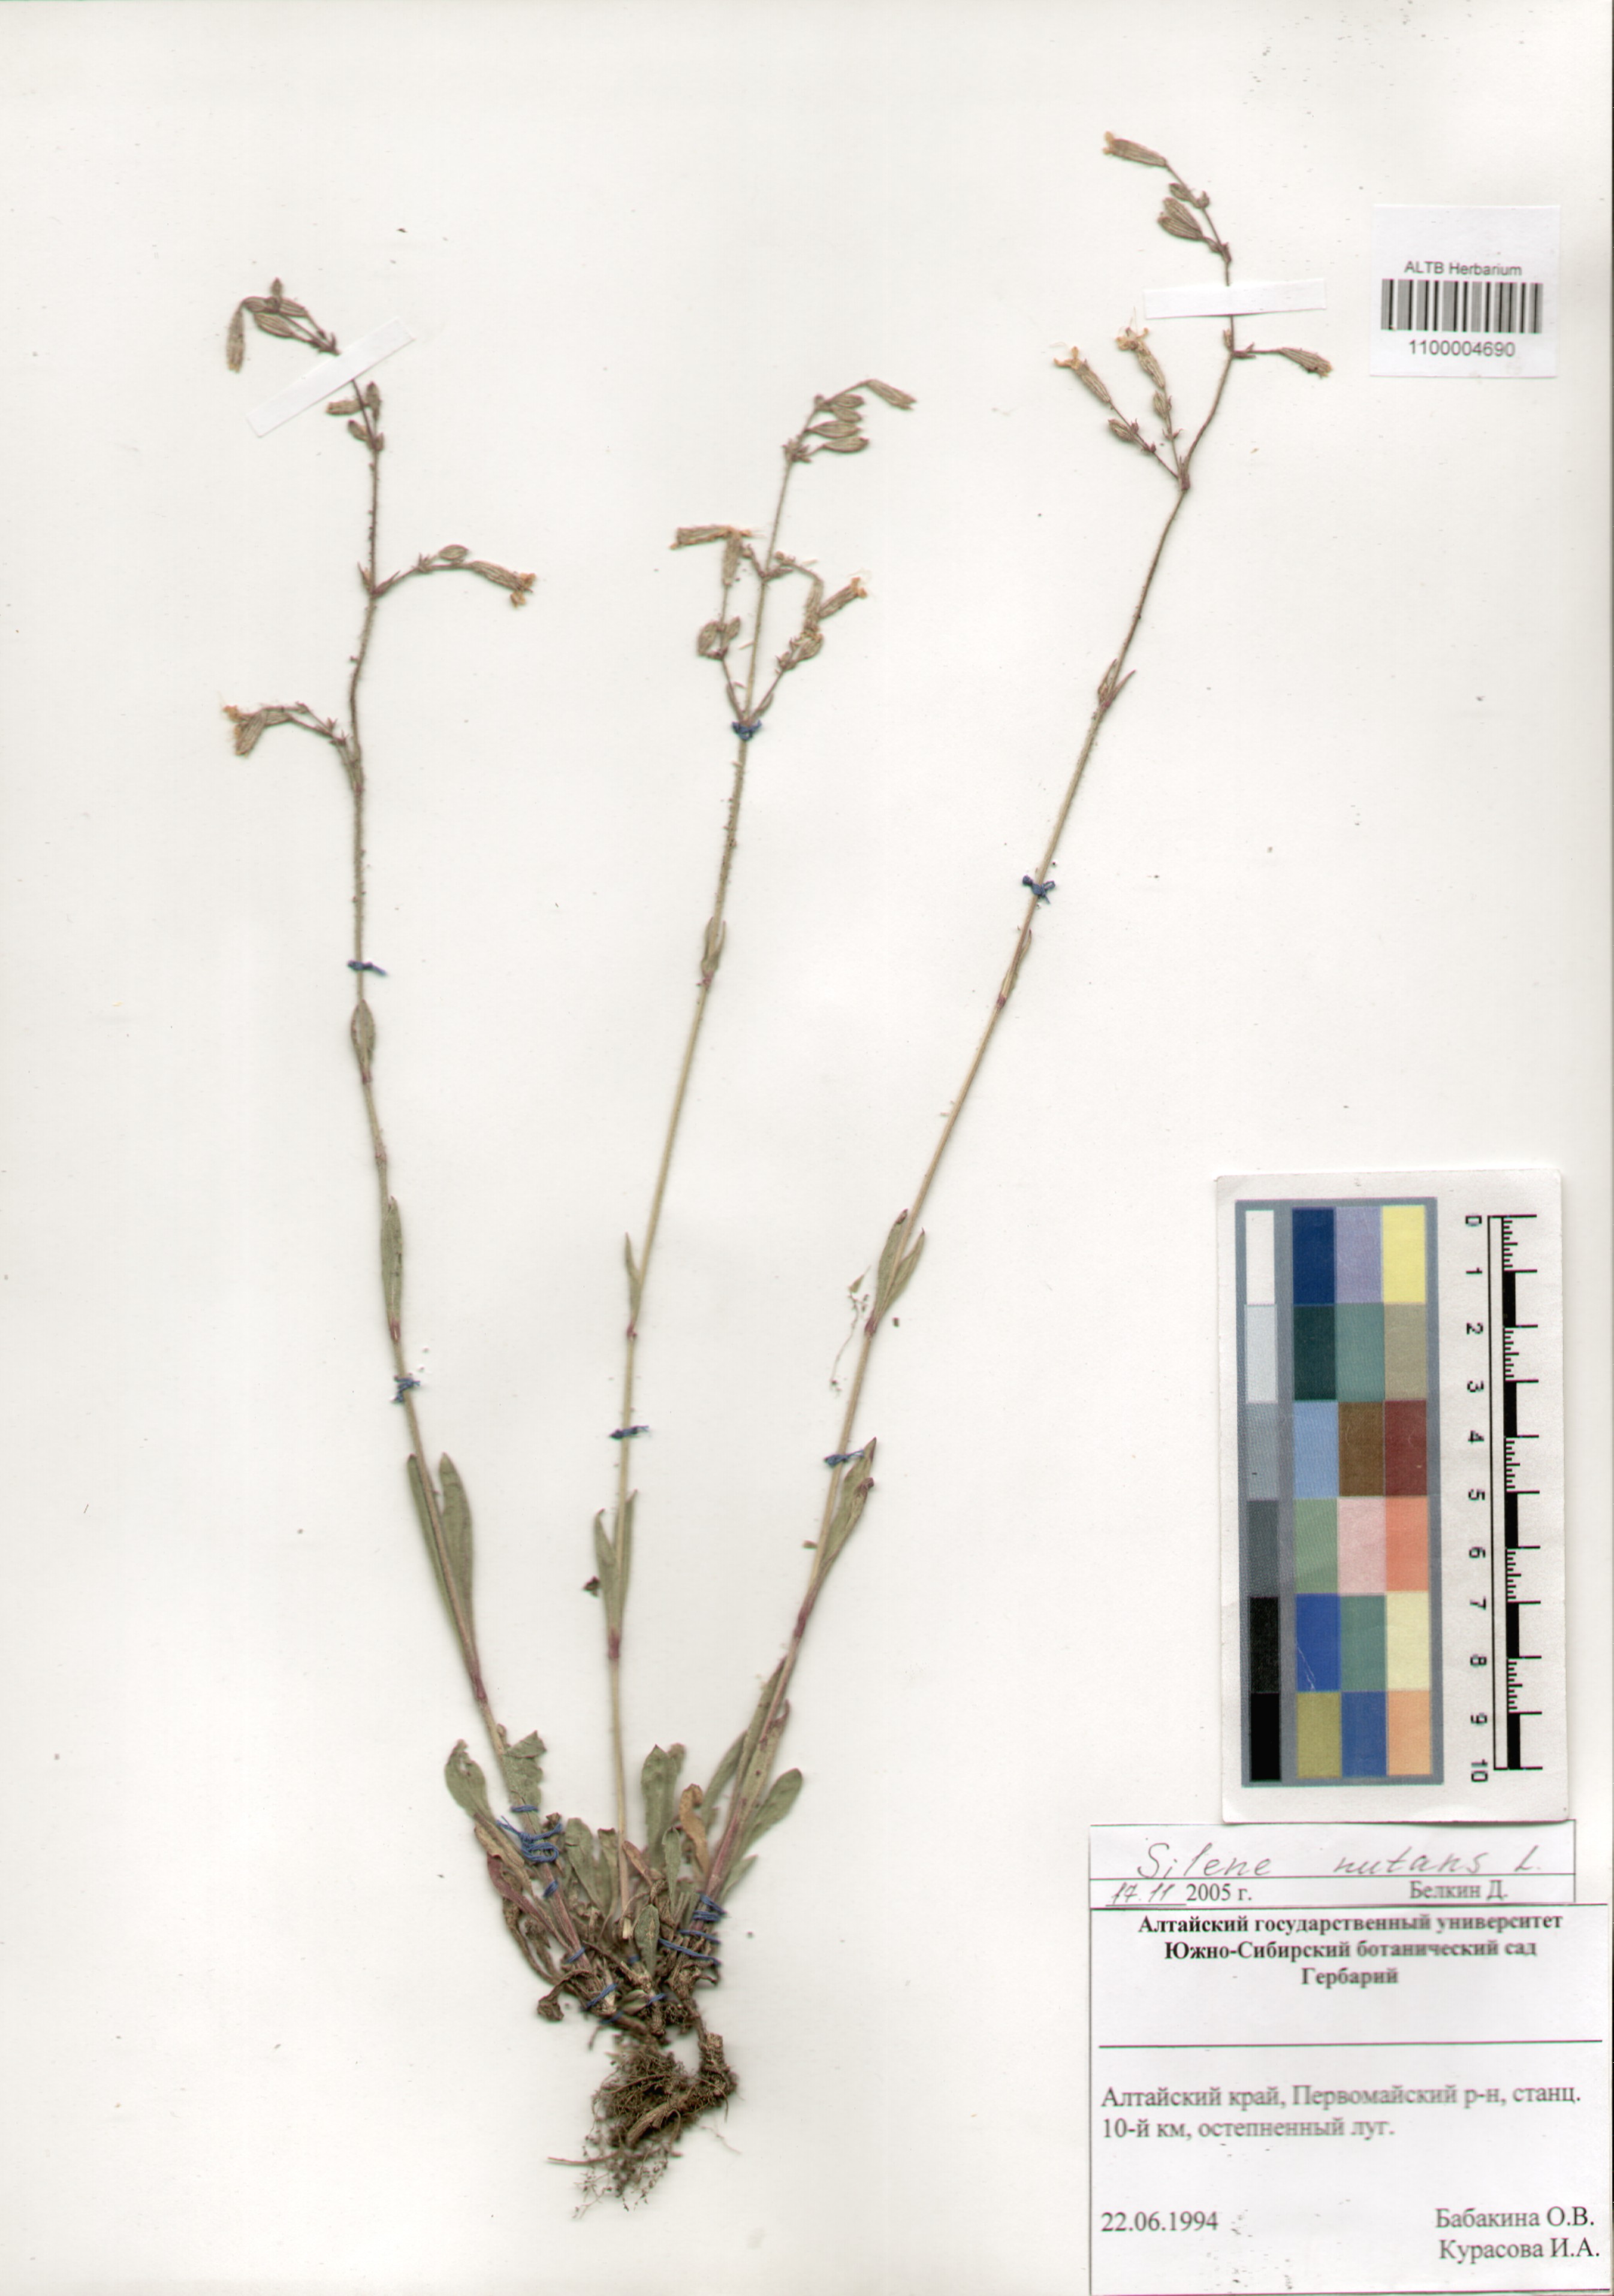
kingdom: Plantae
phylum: Tracheophyta
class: Magnoliopsida
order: Caryophyllales
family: Caryophyllaceae
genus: Silene
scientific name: Silene nutans
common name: Nottingham catchfly
